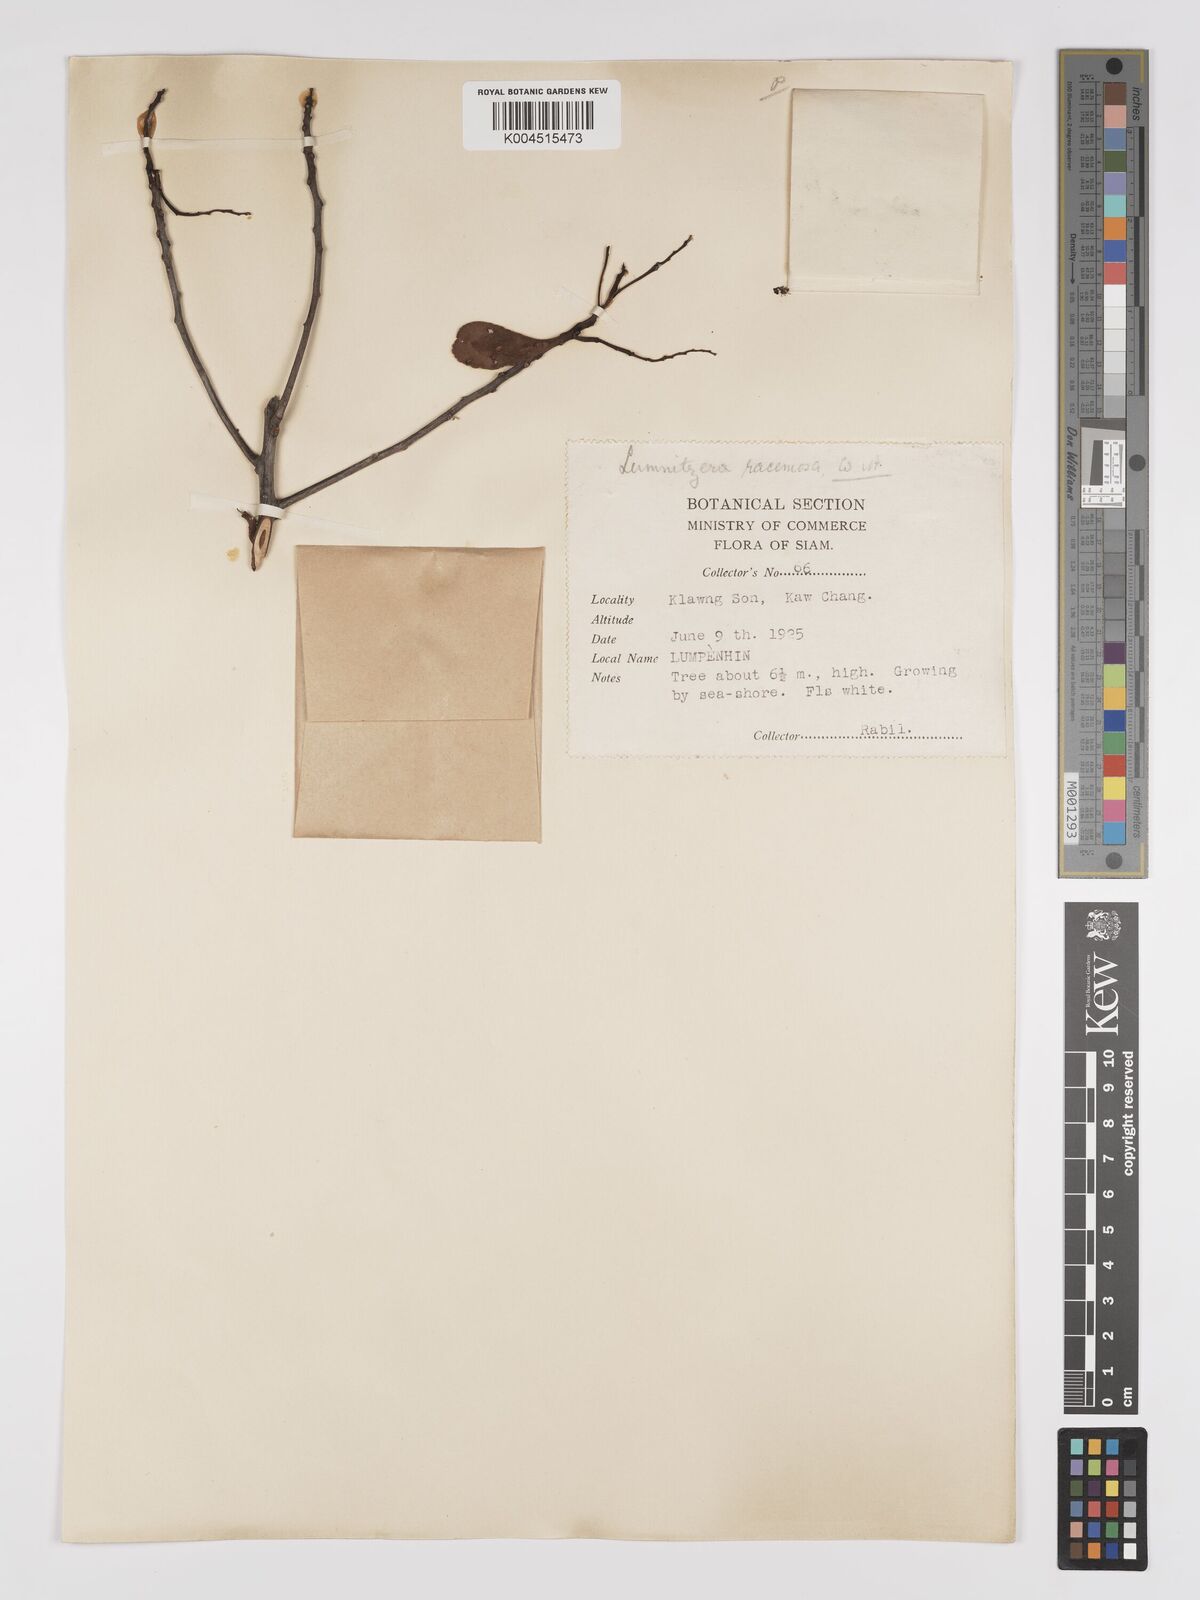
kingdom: Plantae
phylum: Tracheophyta
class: Magnoliopsida
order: Myrtales
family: Combretaceae
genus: Lumnitzera
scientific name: Lumnitzera racemosa
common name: White-flowered black mangrove
